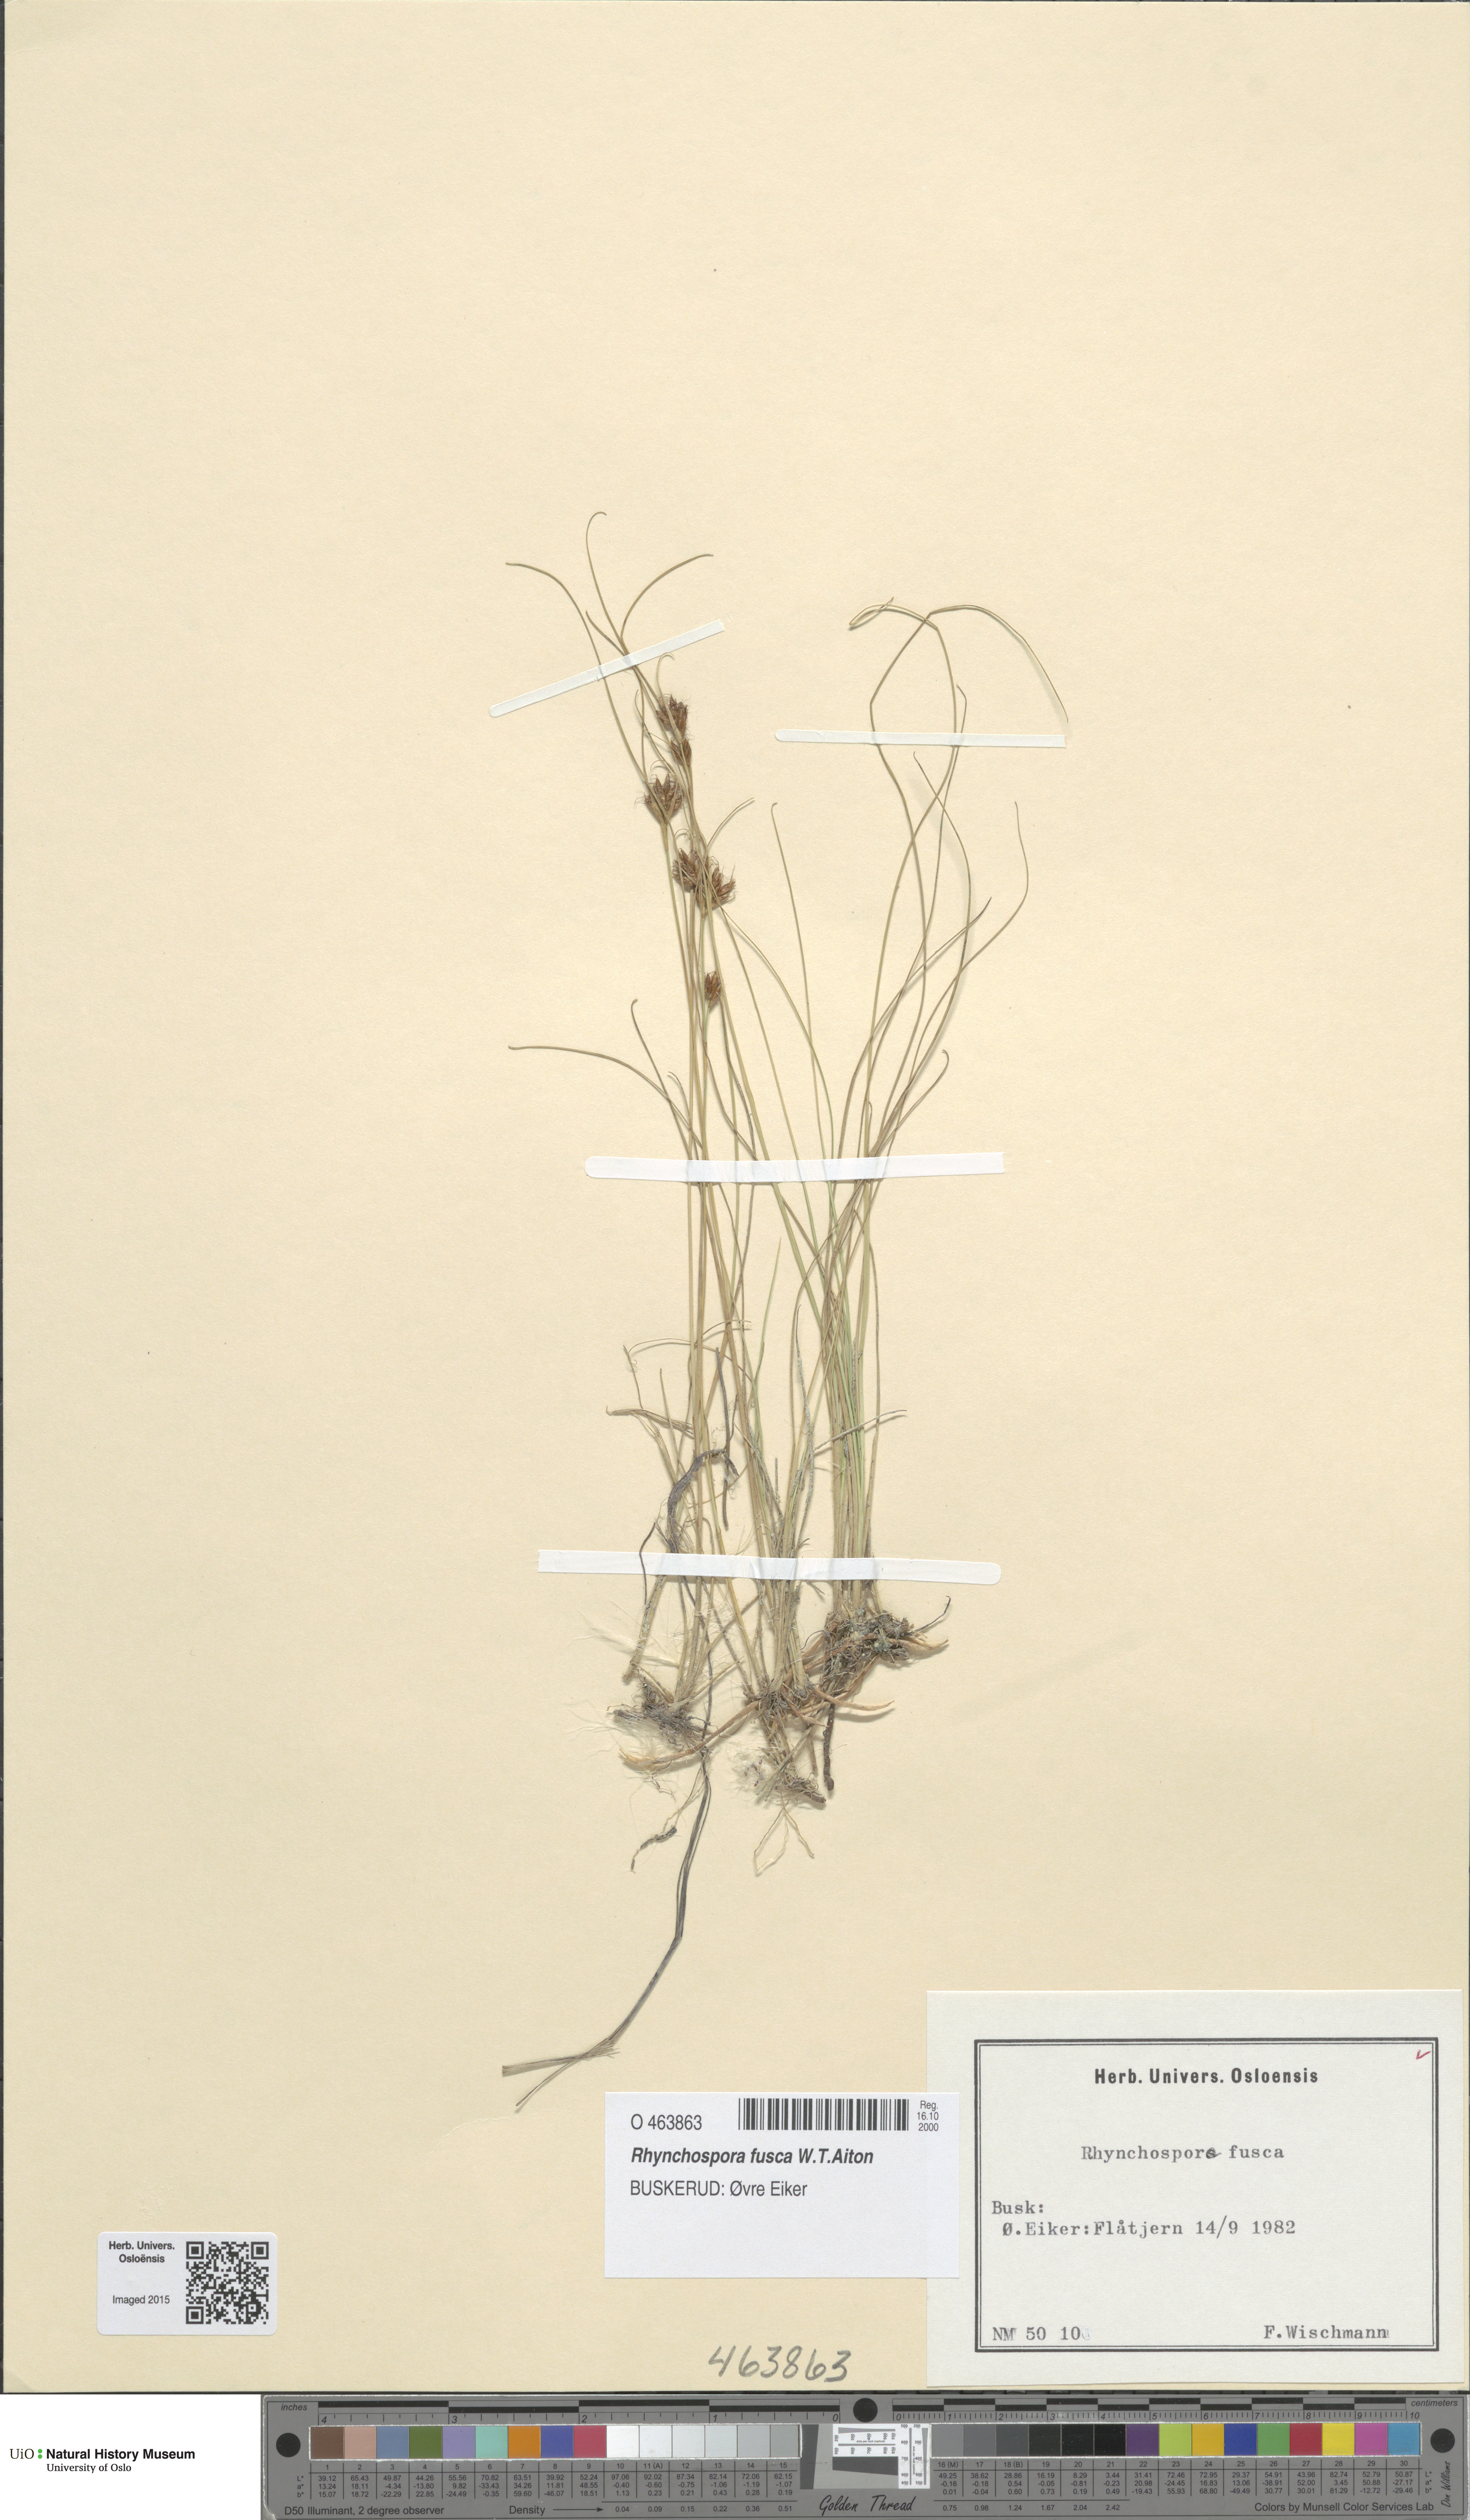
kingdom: Plantae
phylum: Tracheophyta
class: Liliopsida
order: Poales
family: Cyperaceae
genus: Rhynchospora
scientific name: Rhynchospora fusca
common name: Brown beak-sedge
